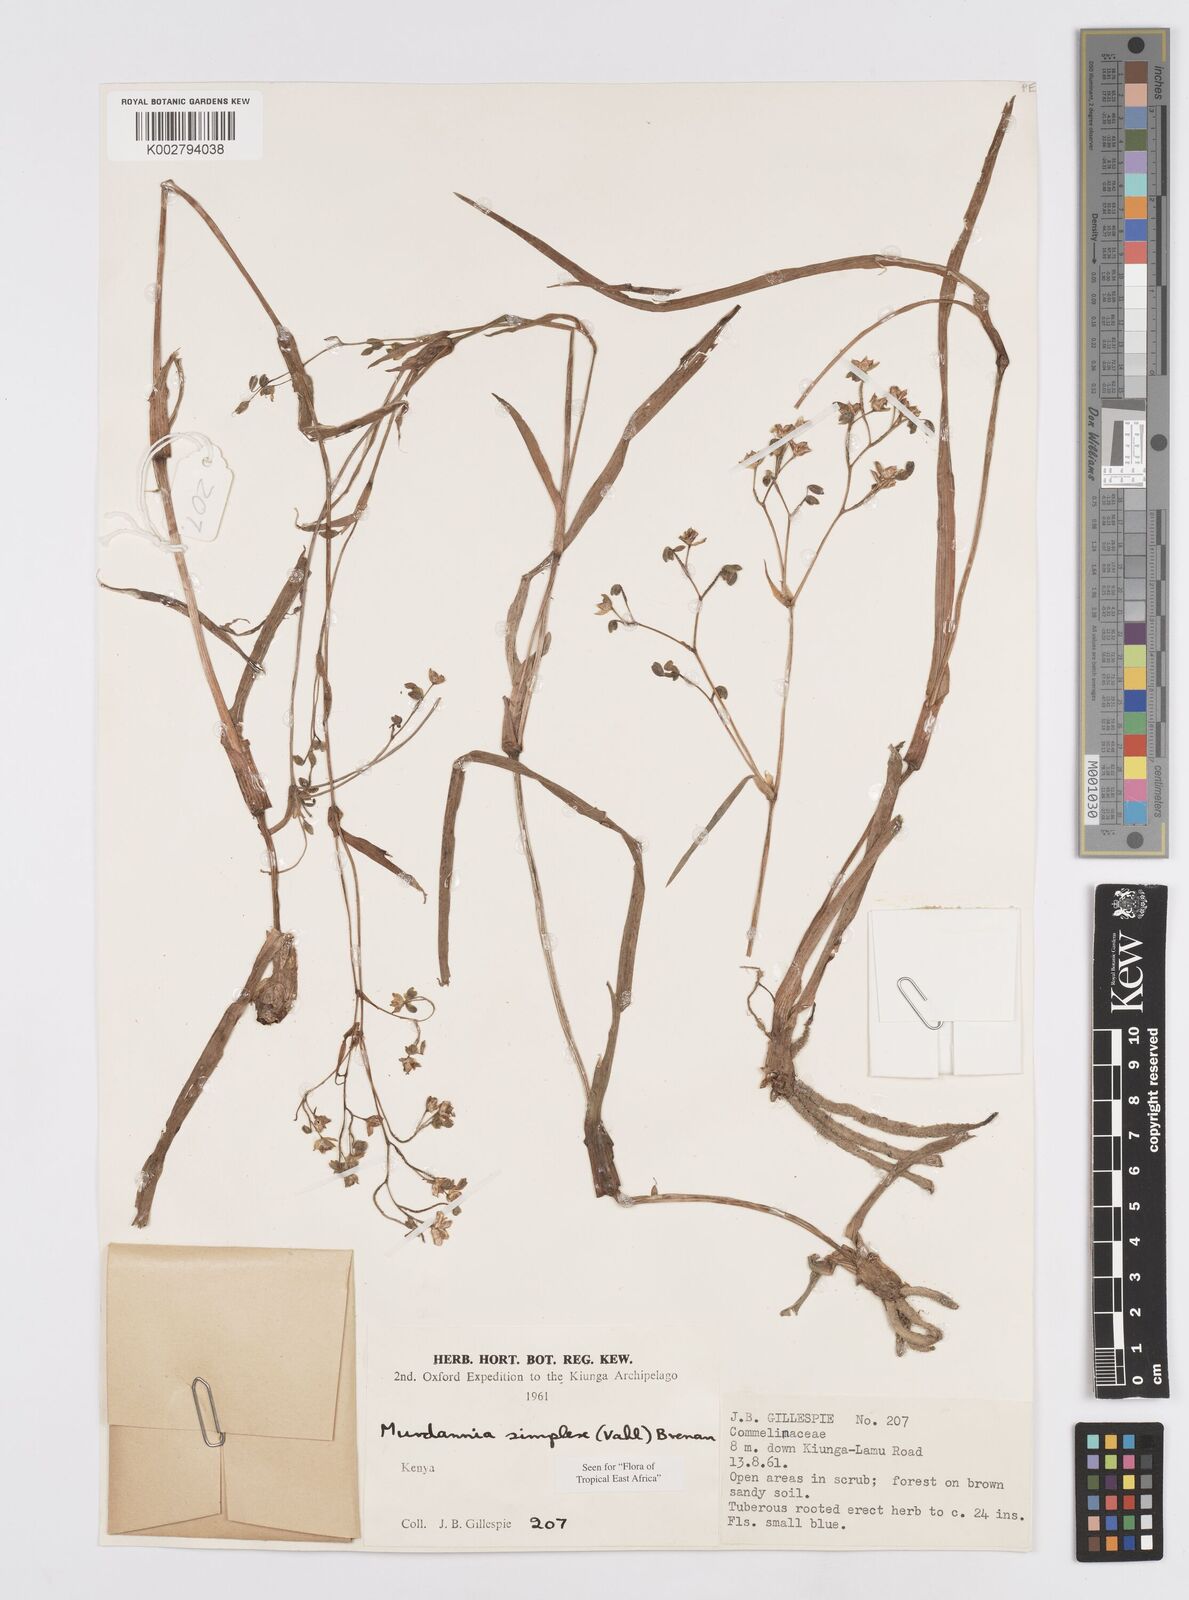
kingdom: Plantae
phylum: Tracheophyta
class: Liliopsida
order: Commelinales
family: Commelinaceae
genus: Murdannia
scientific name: Murdannia simplex
